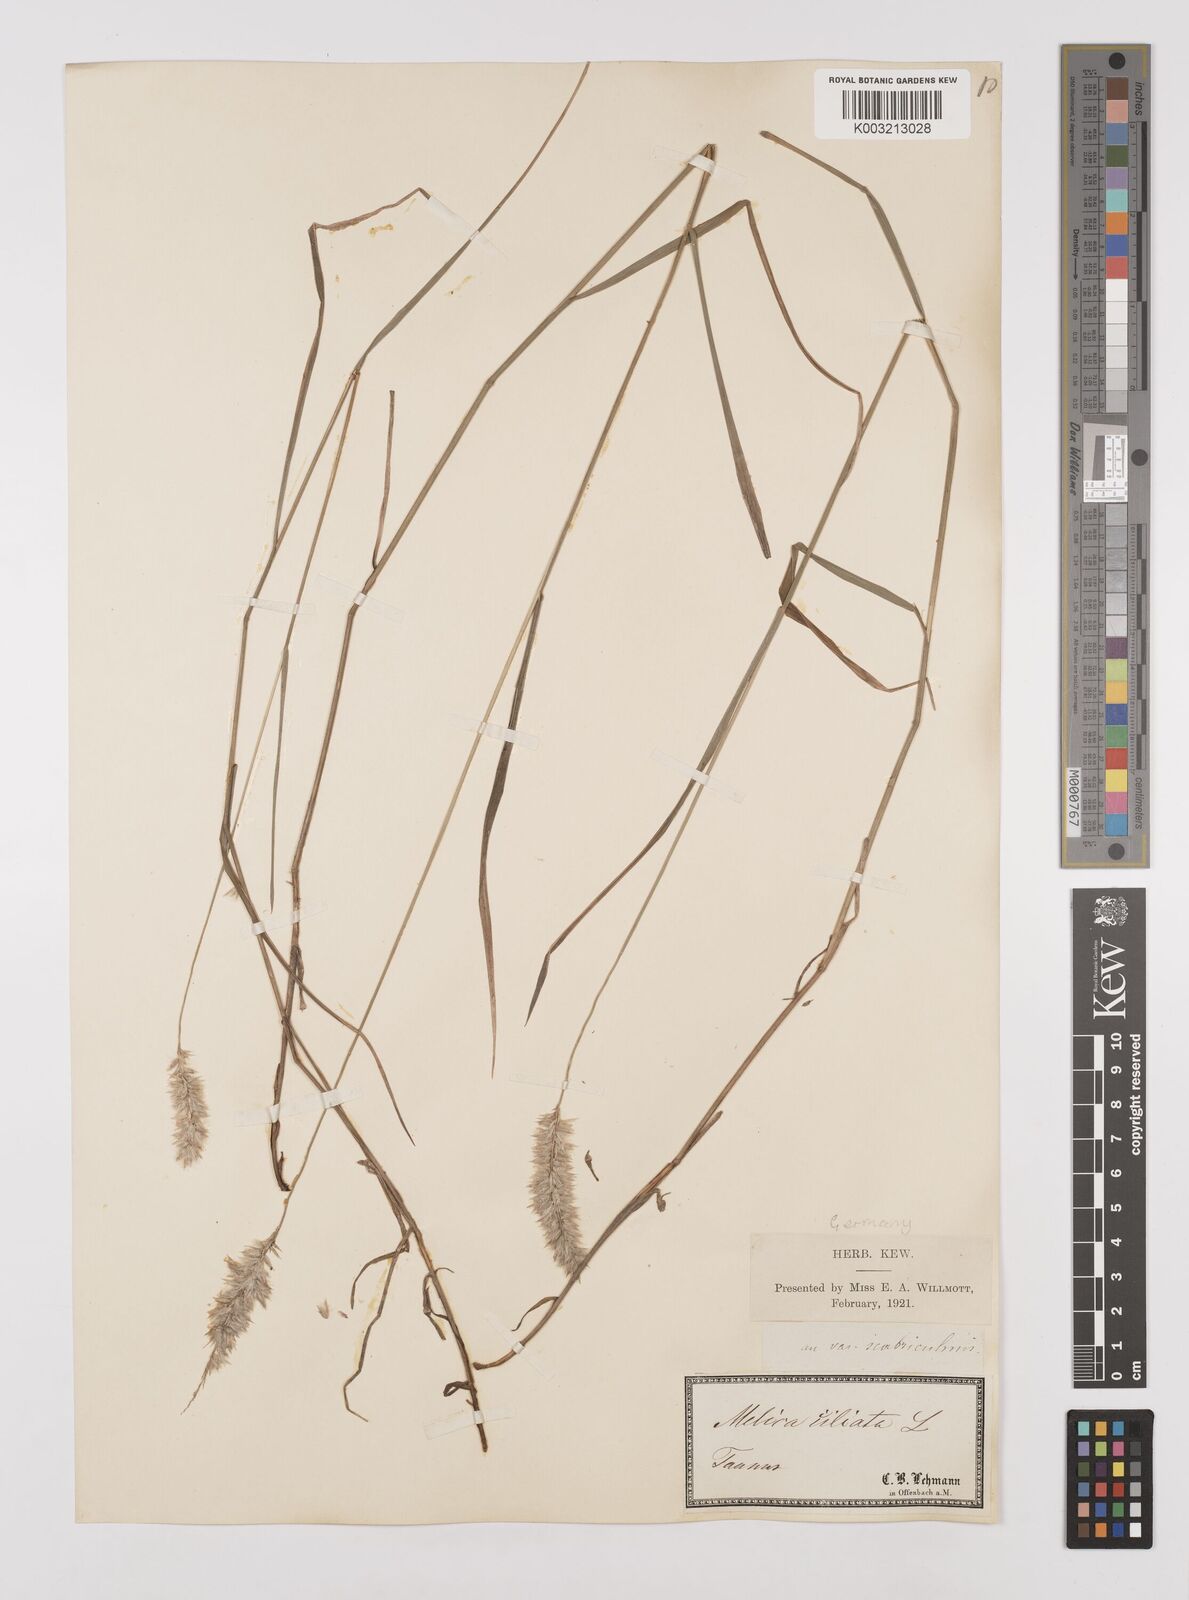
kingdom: Plantae
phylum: Tracheophyta
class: Liliopsida
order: Poales
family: Poaceae
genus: Melica
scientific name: Melica ciliata
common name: Hairy melicgrass
